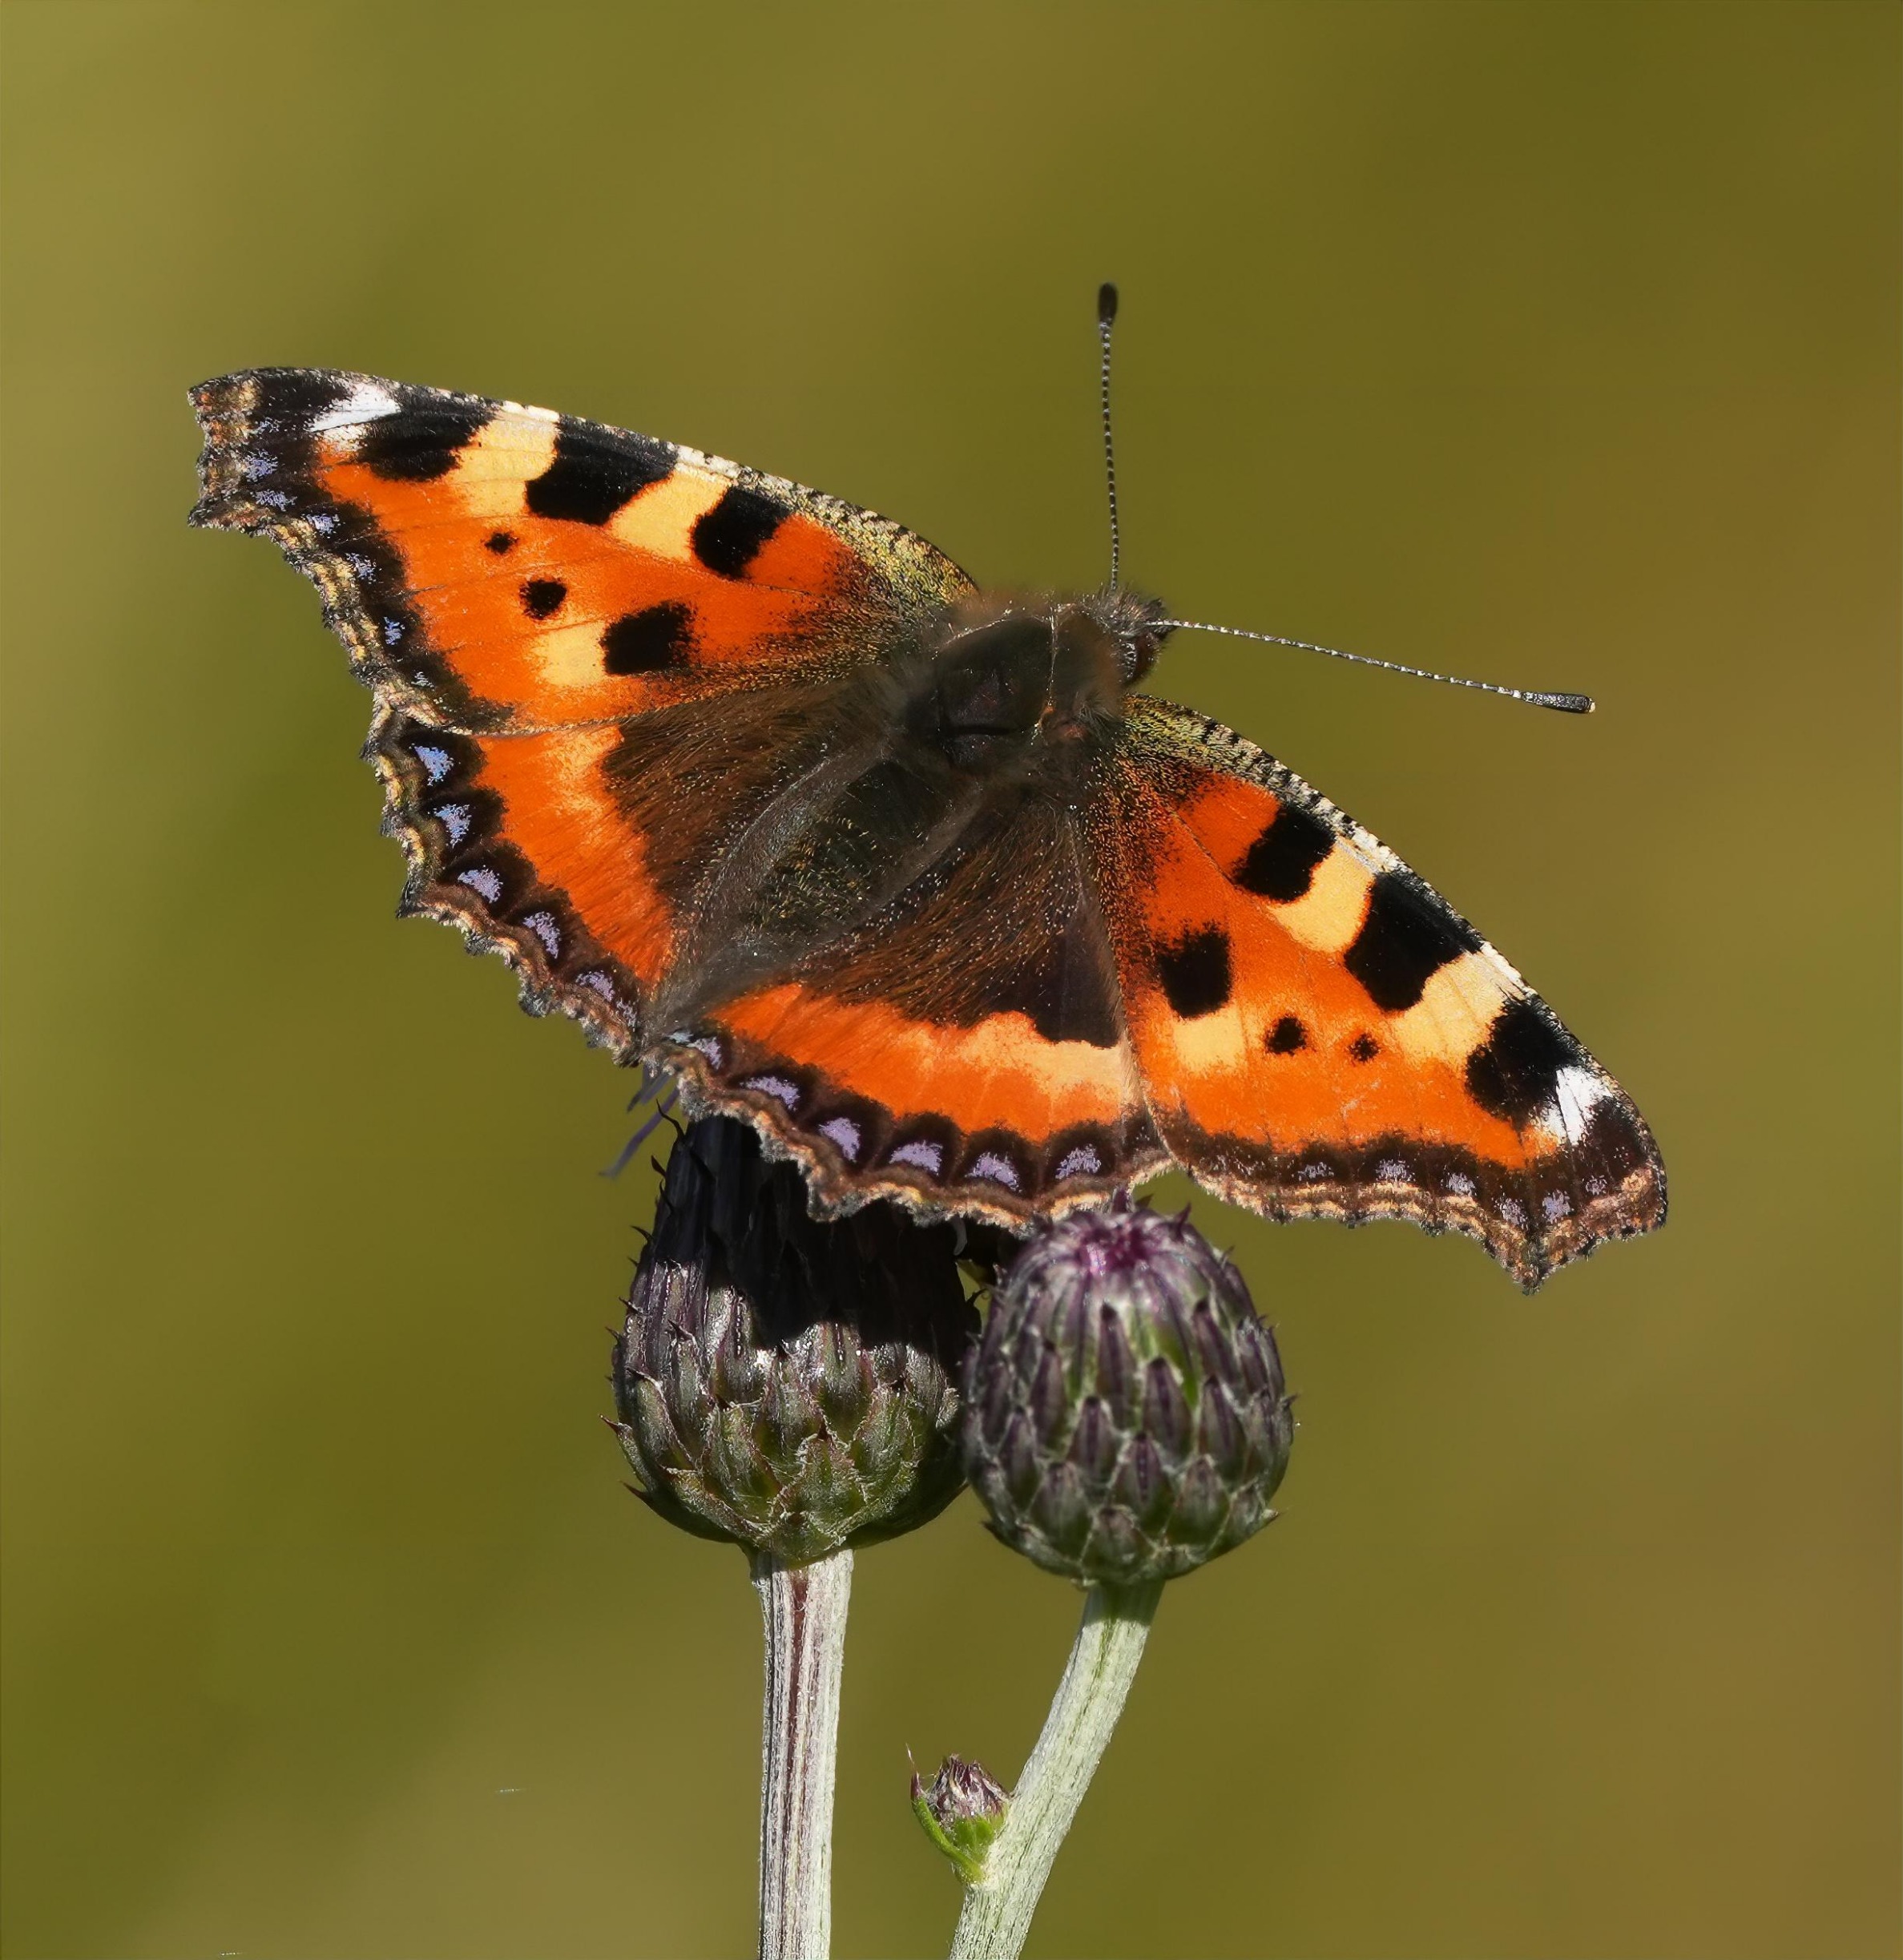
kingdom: Animalia
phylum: Arthropoda
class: Insecta
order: Lepidoptera
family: Nymphalidae
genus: Aglais
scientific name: Aglais urticae
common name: Nældens takvinge
